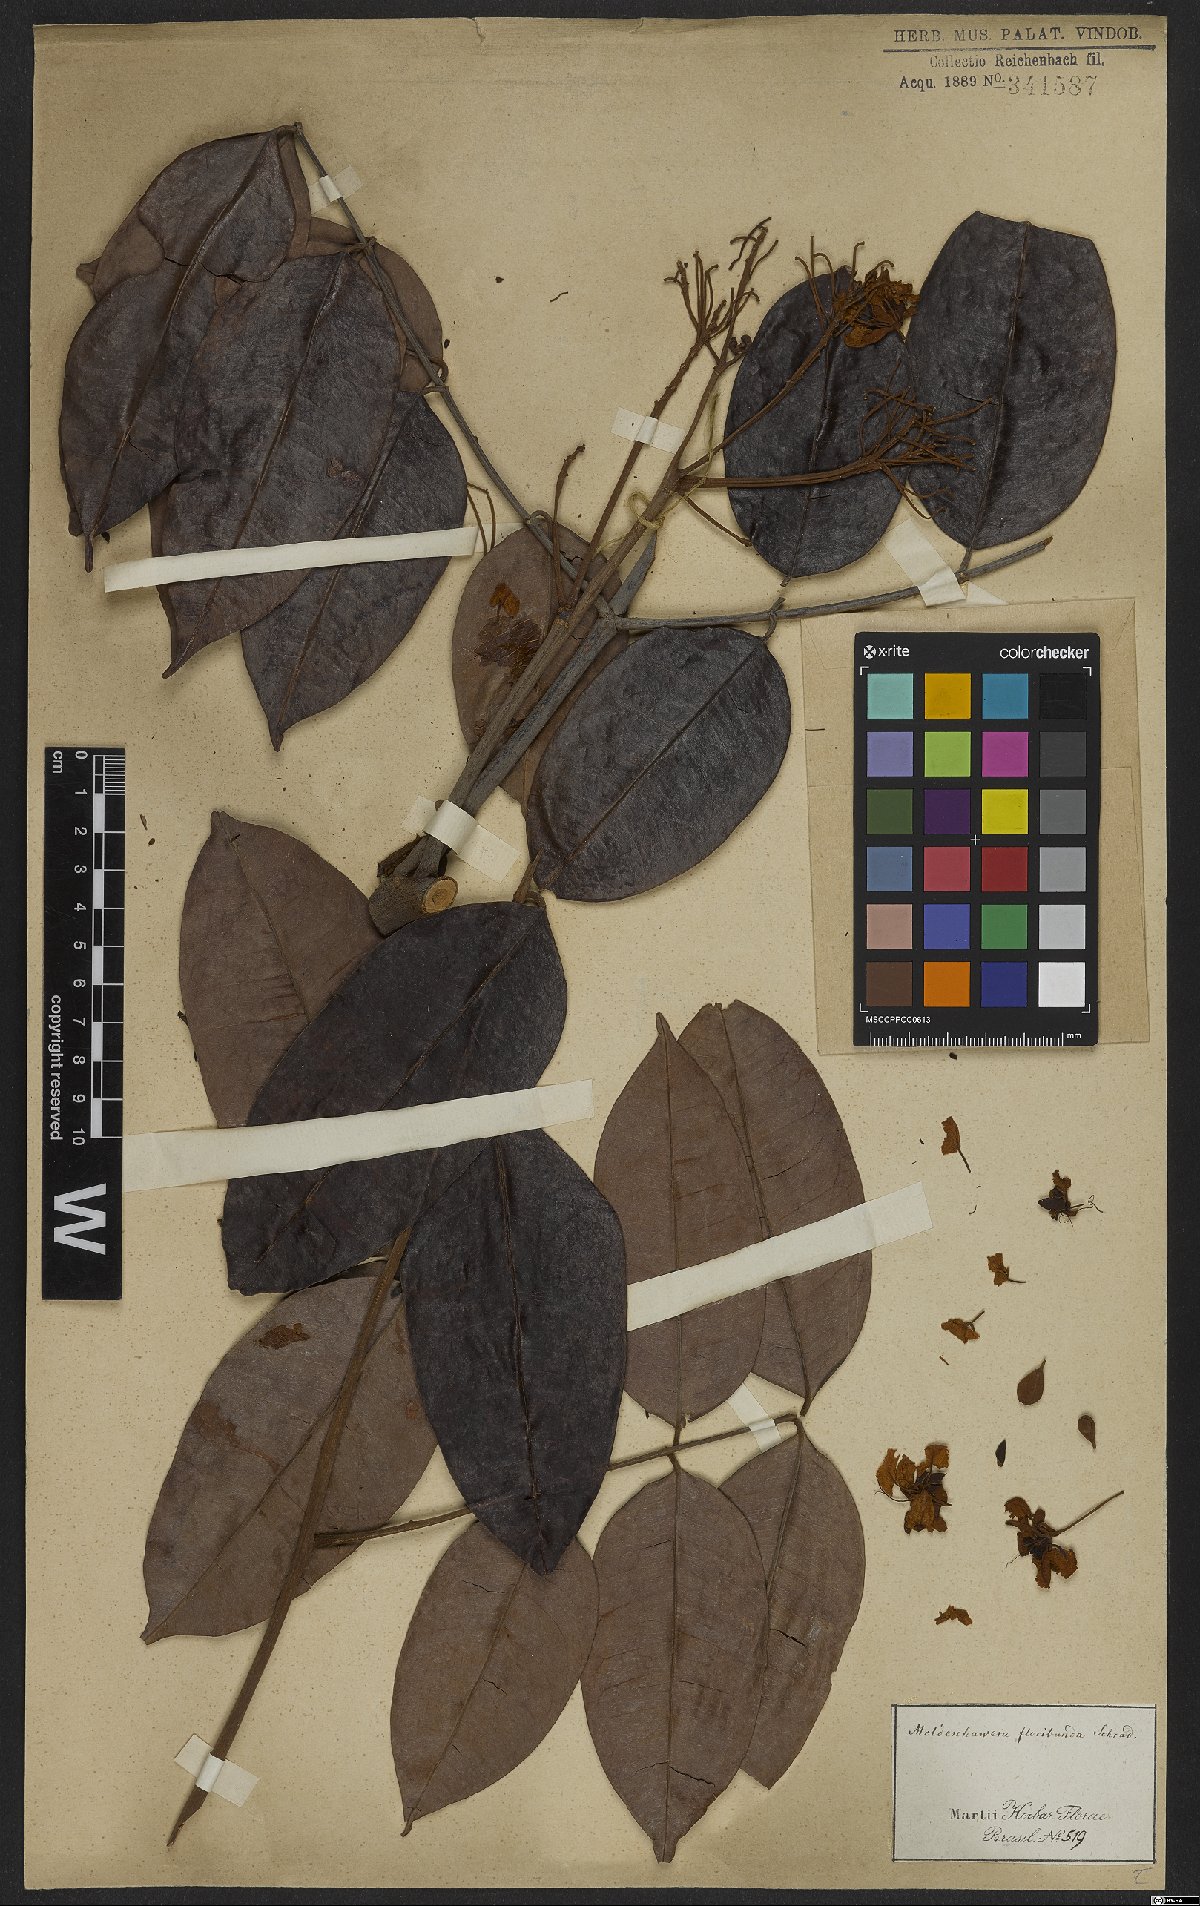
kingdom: Plantae
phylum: Tracheophyta
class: Magnoliopsida
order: Fabales
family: Fabaceae
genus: Moldenhawera
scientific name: Moldenhawera floribunda
